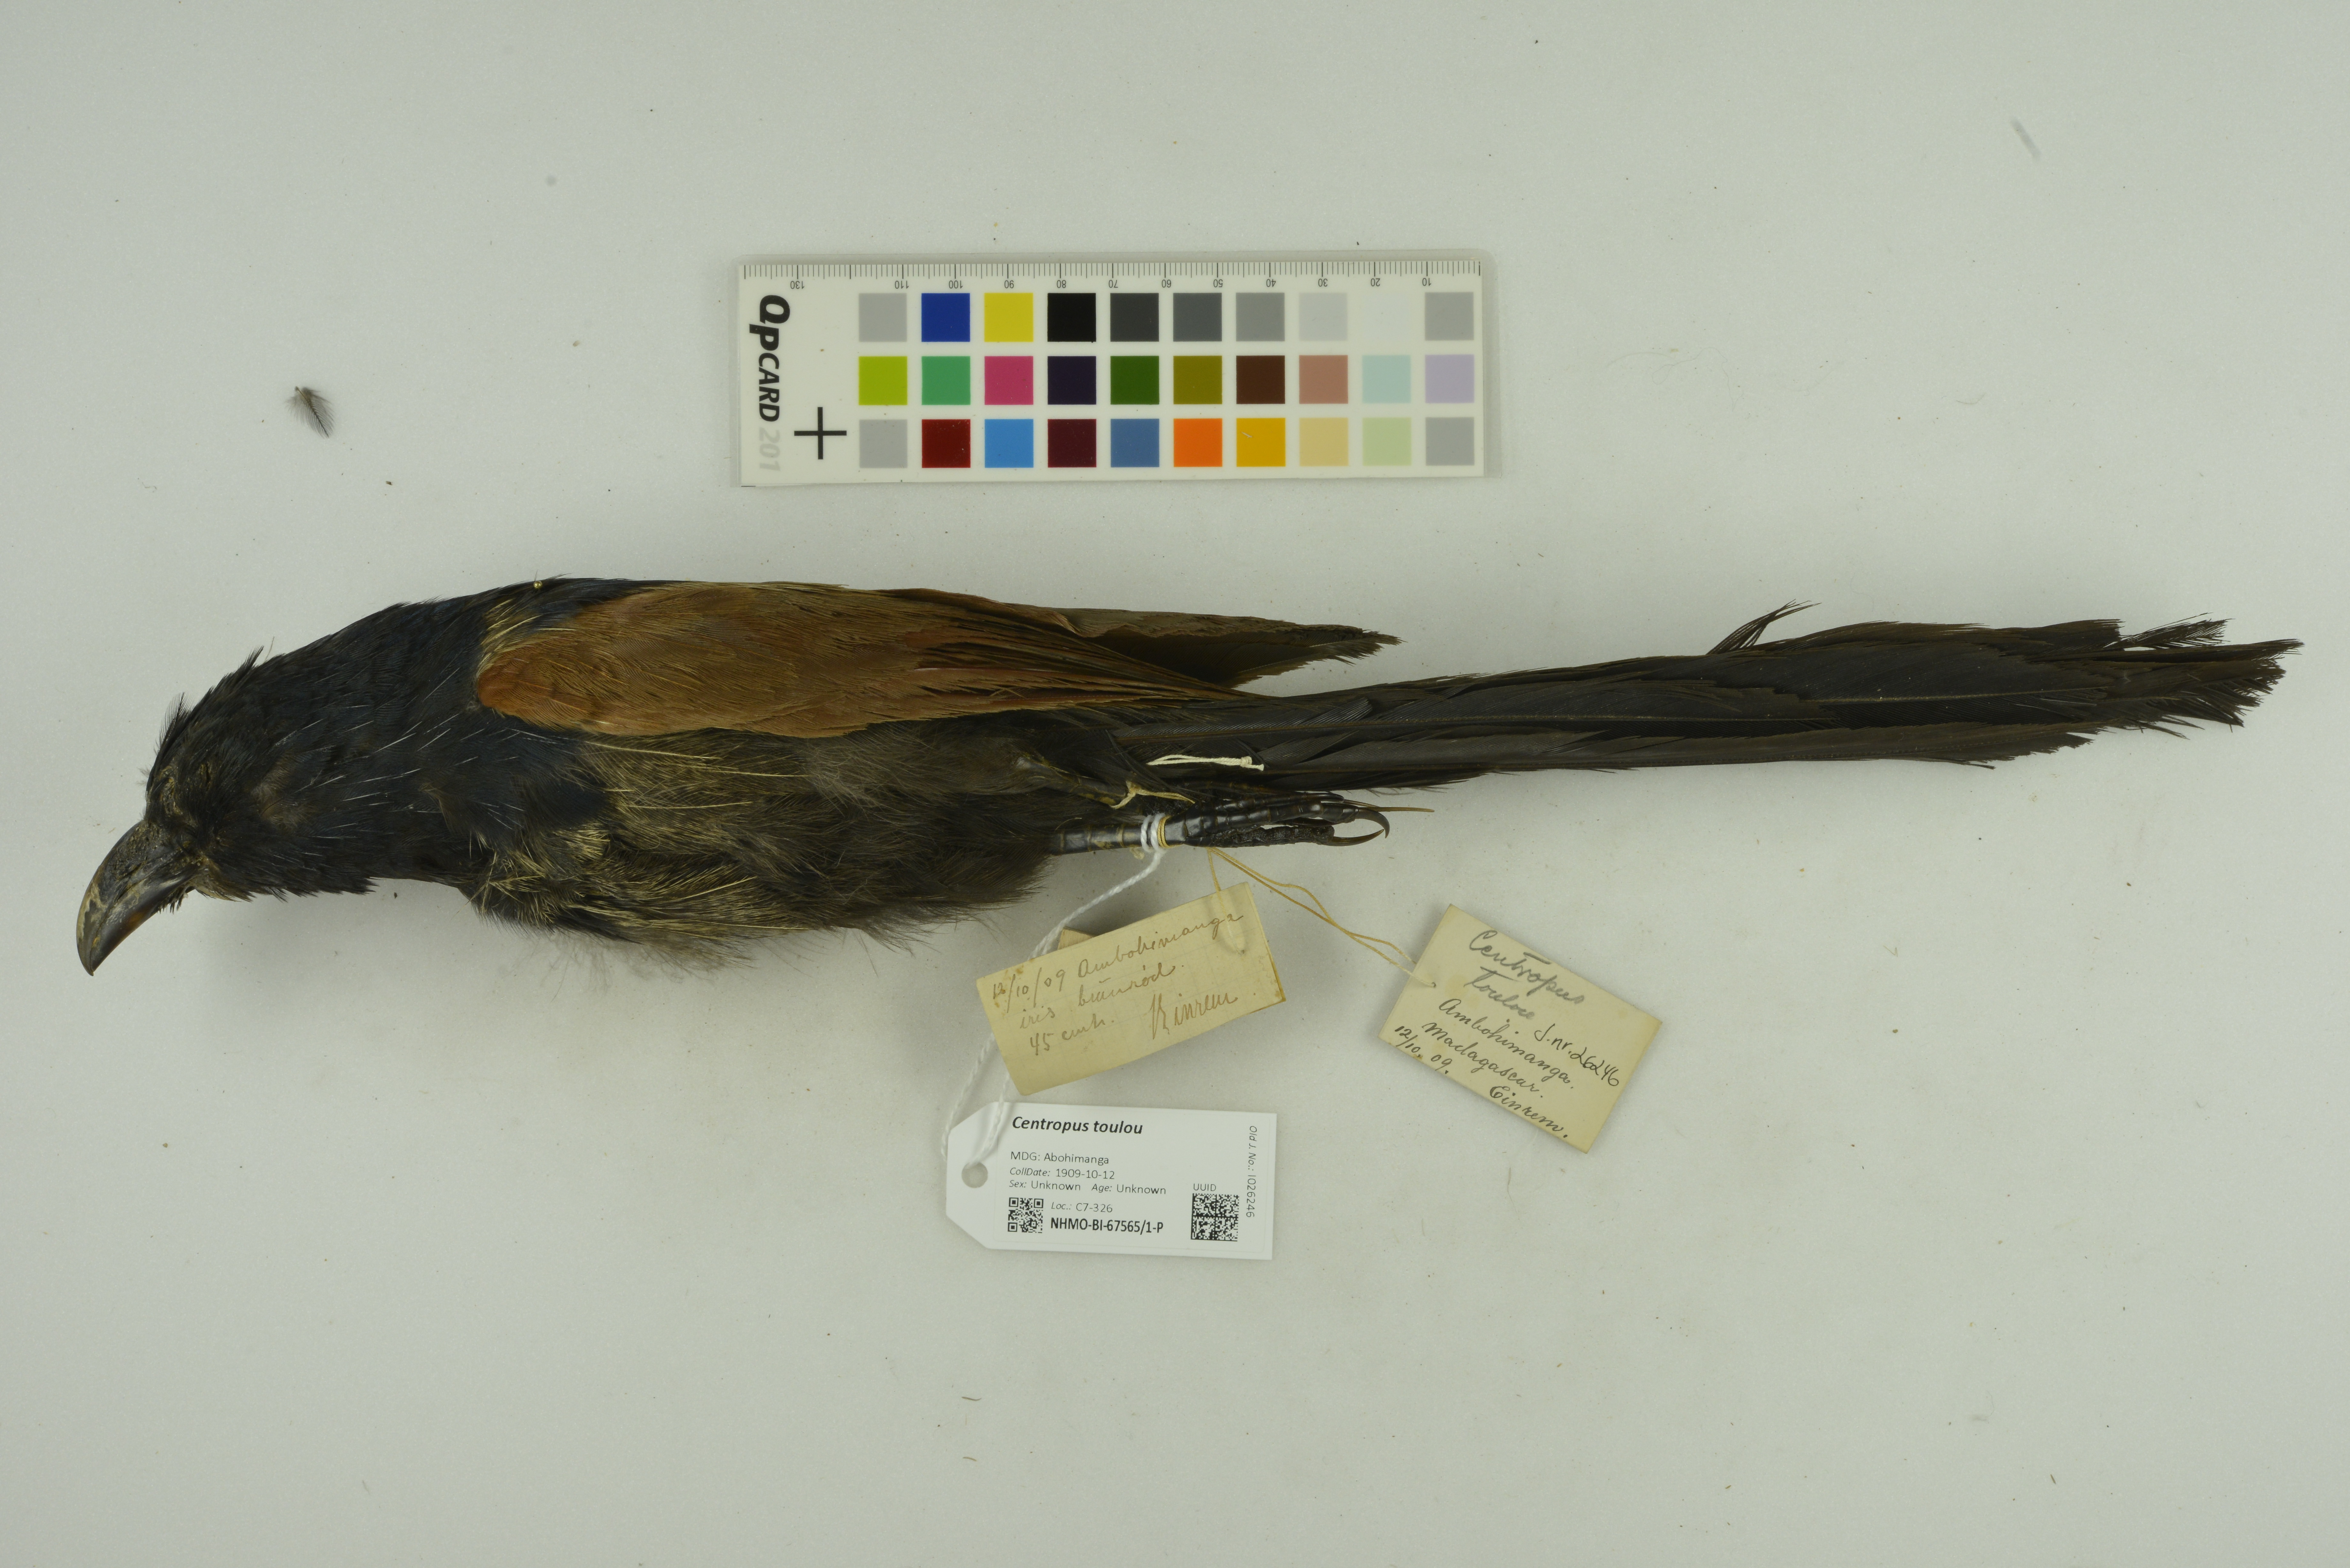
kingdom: Animalia
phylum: Chordata
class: Aves
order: Cuculiformes
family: Cuculidae
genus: Centropus
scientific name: Centropus toulou
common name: Malagasy coucal
